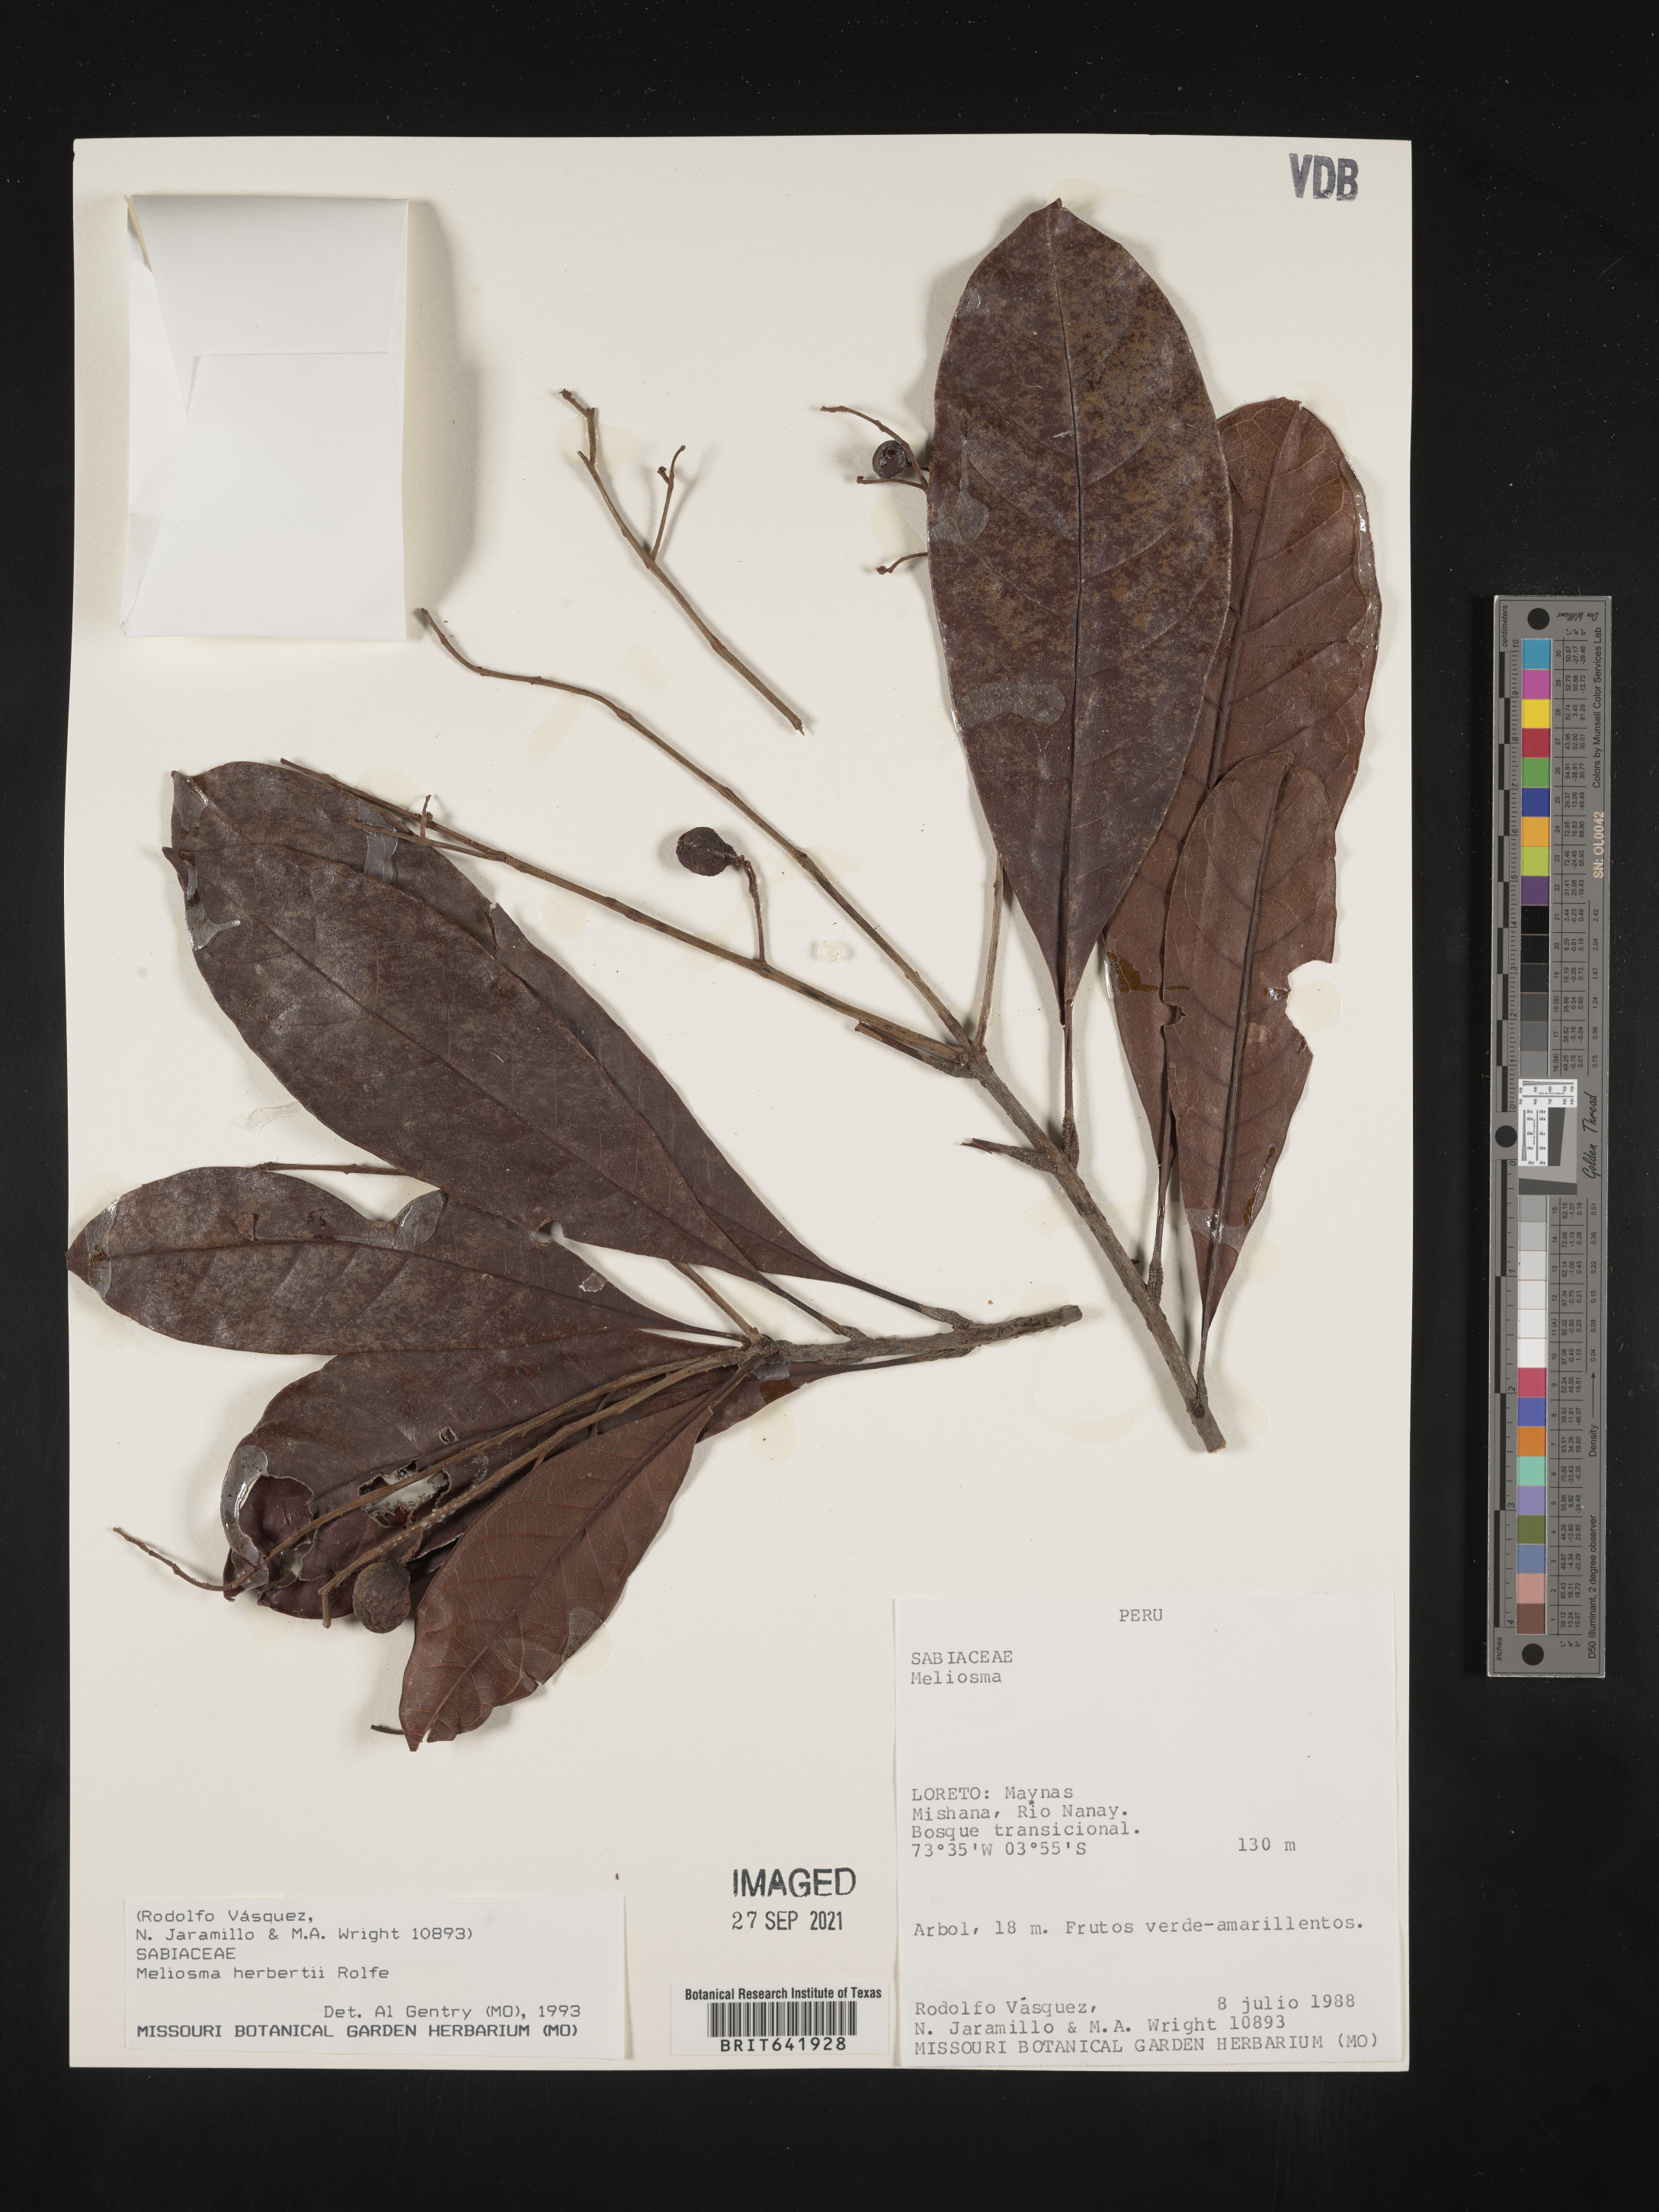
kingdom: Plantae
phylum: Tracheophyta
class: Magnoliopsida
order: Proteales
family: Sabiaceae
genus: Meliosma
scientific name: Meliosma
